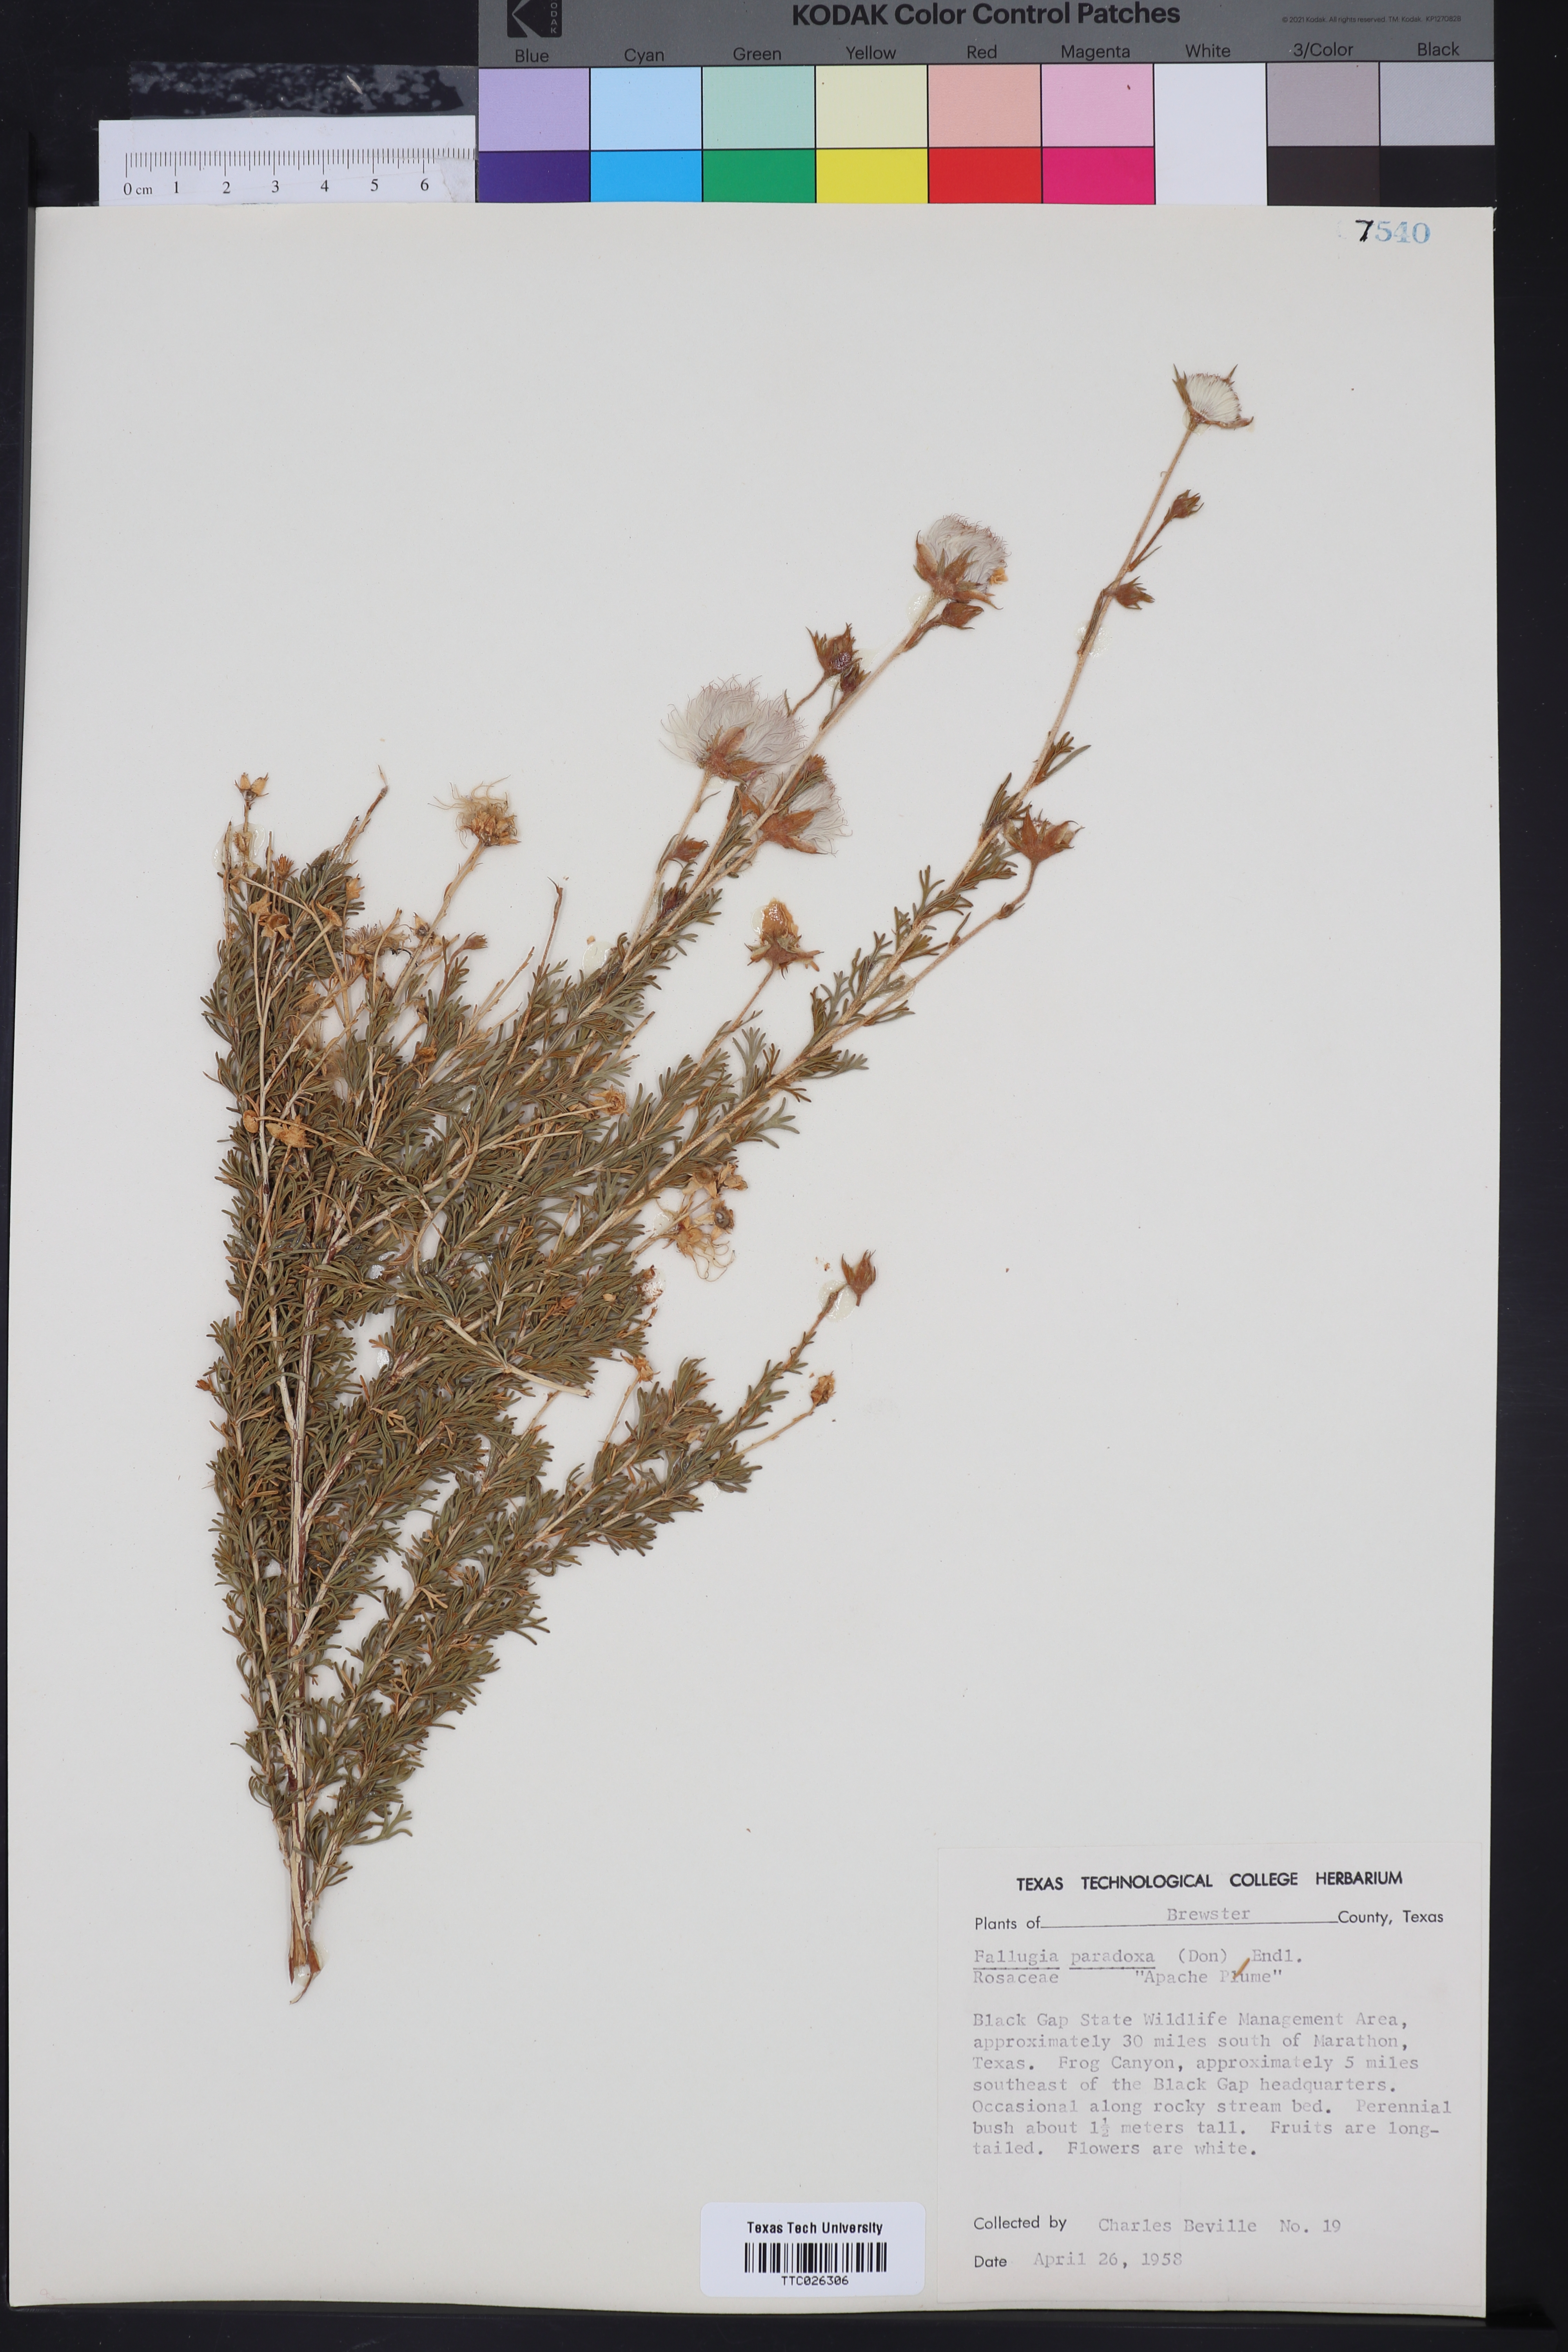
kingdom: Plantae
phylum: Tracheophyta
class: Magnoliopsida
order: Rosales
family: Rosaceae
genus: Fallugia
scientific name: Fallugia paradoxa
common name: Apache-plume
